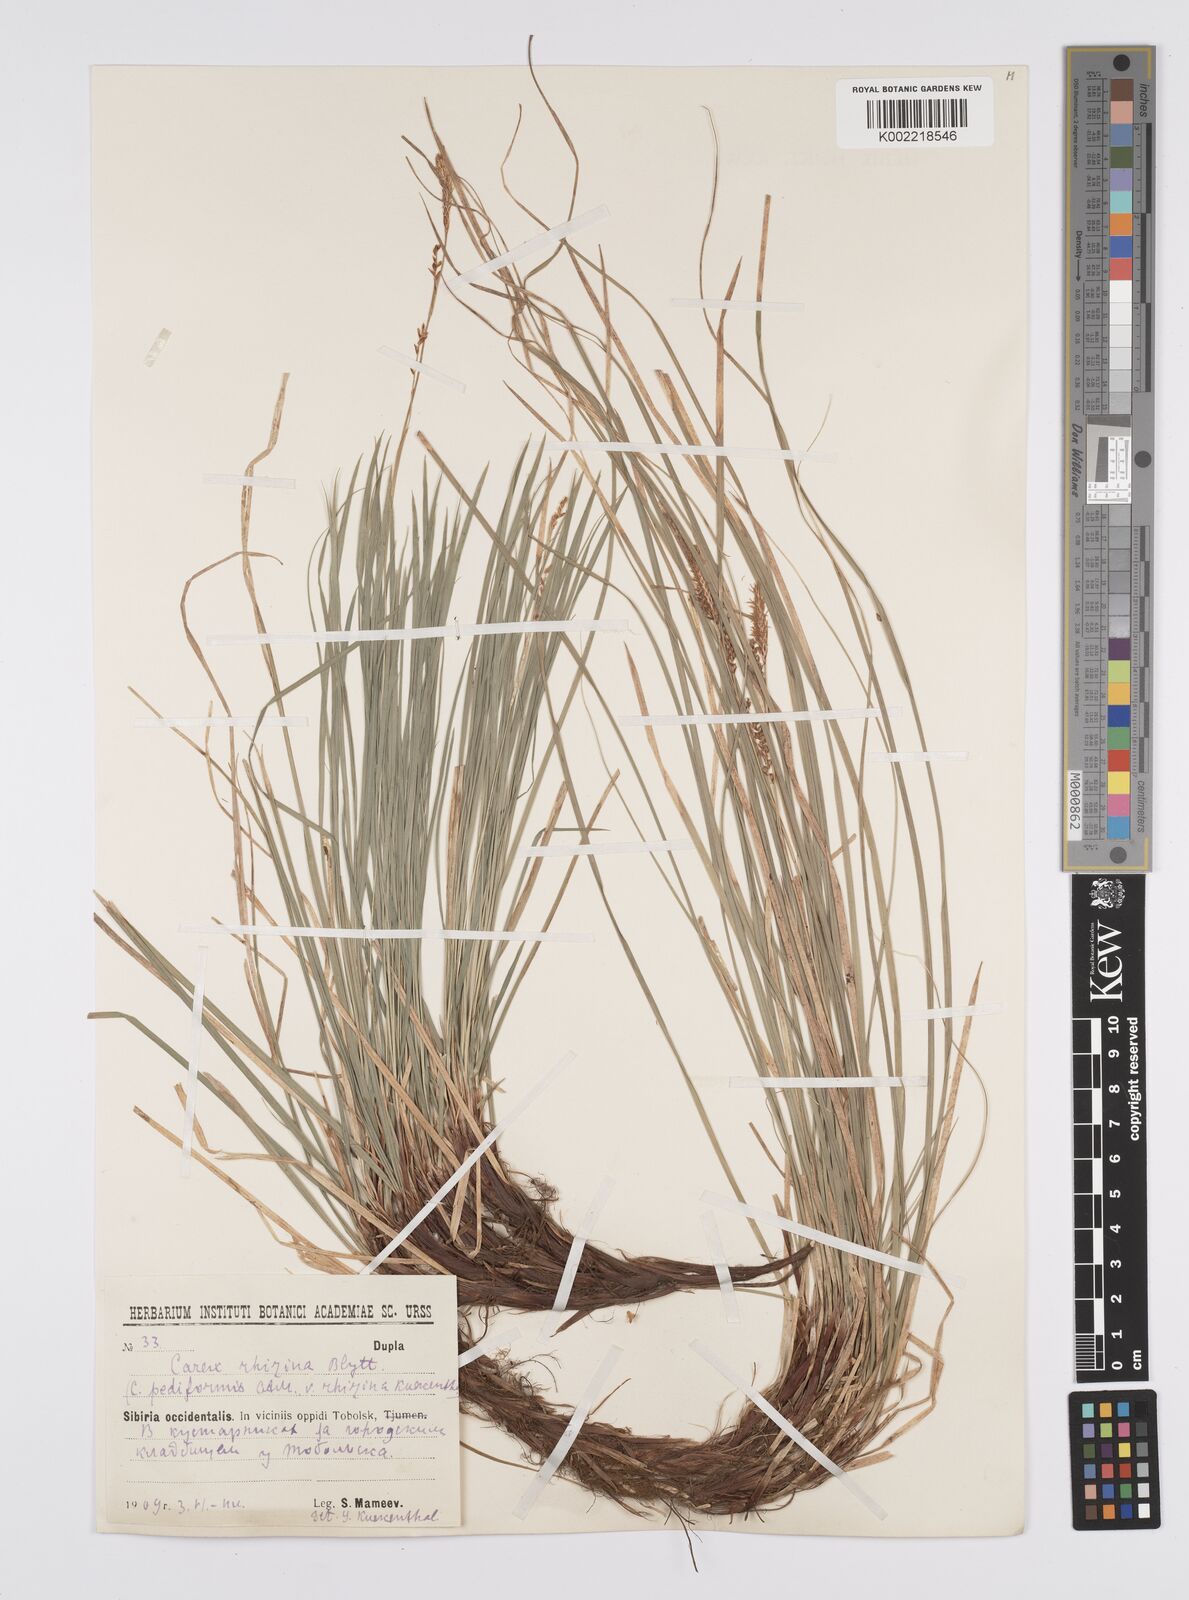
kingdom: Plantae
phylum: Tracheophyta
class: Liliopsida
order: Poales
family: Cyperaceae
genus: Carex
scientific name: Carex pediformis
